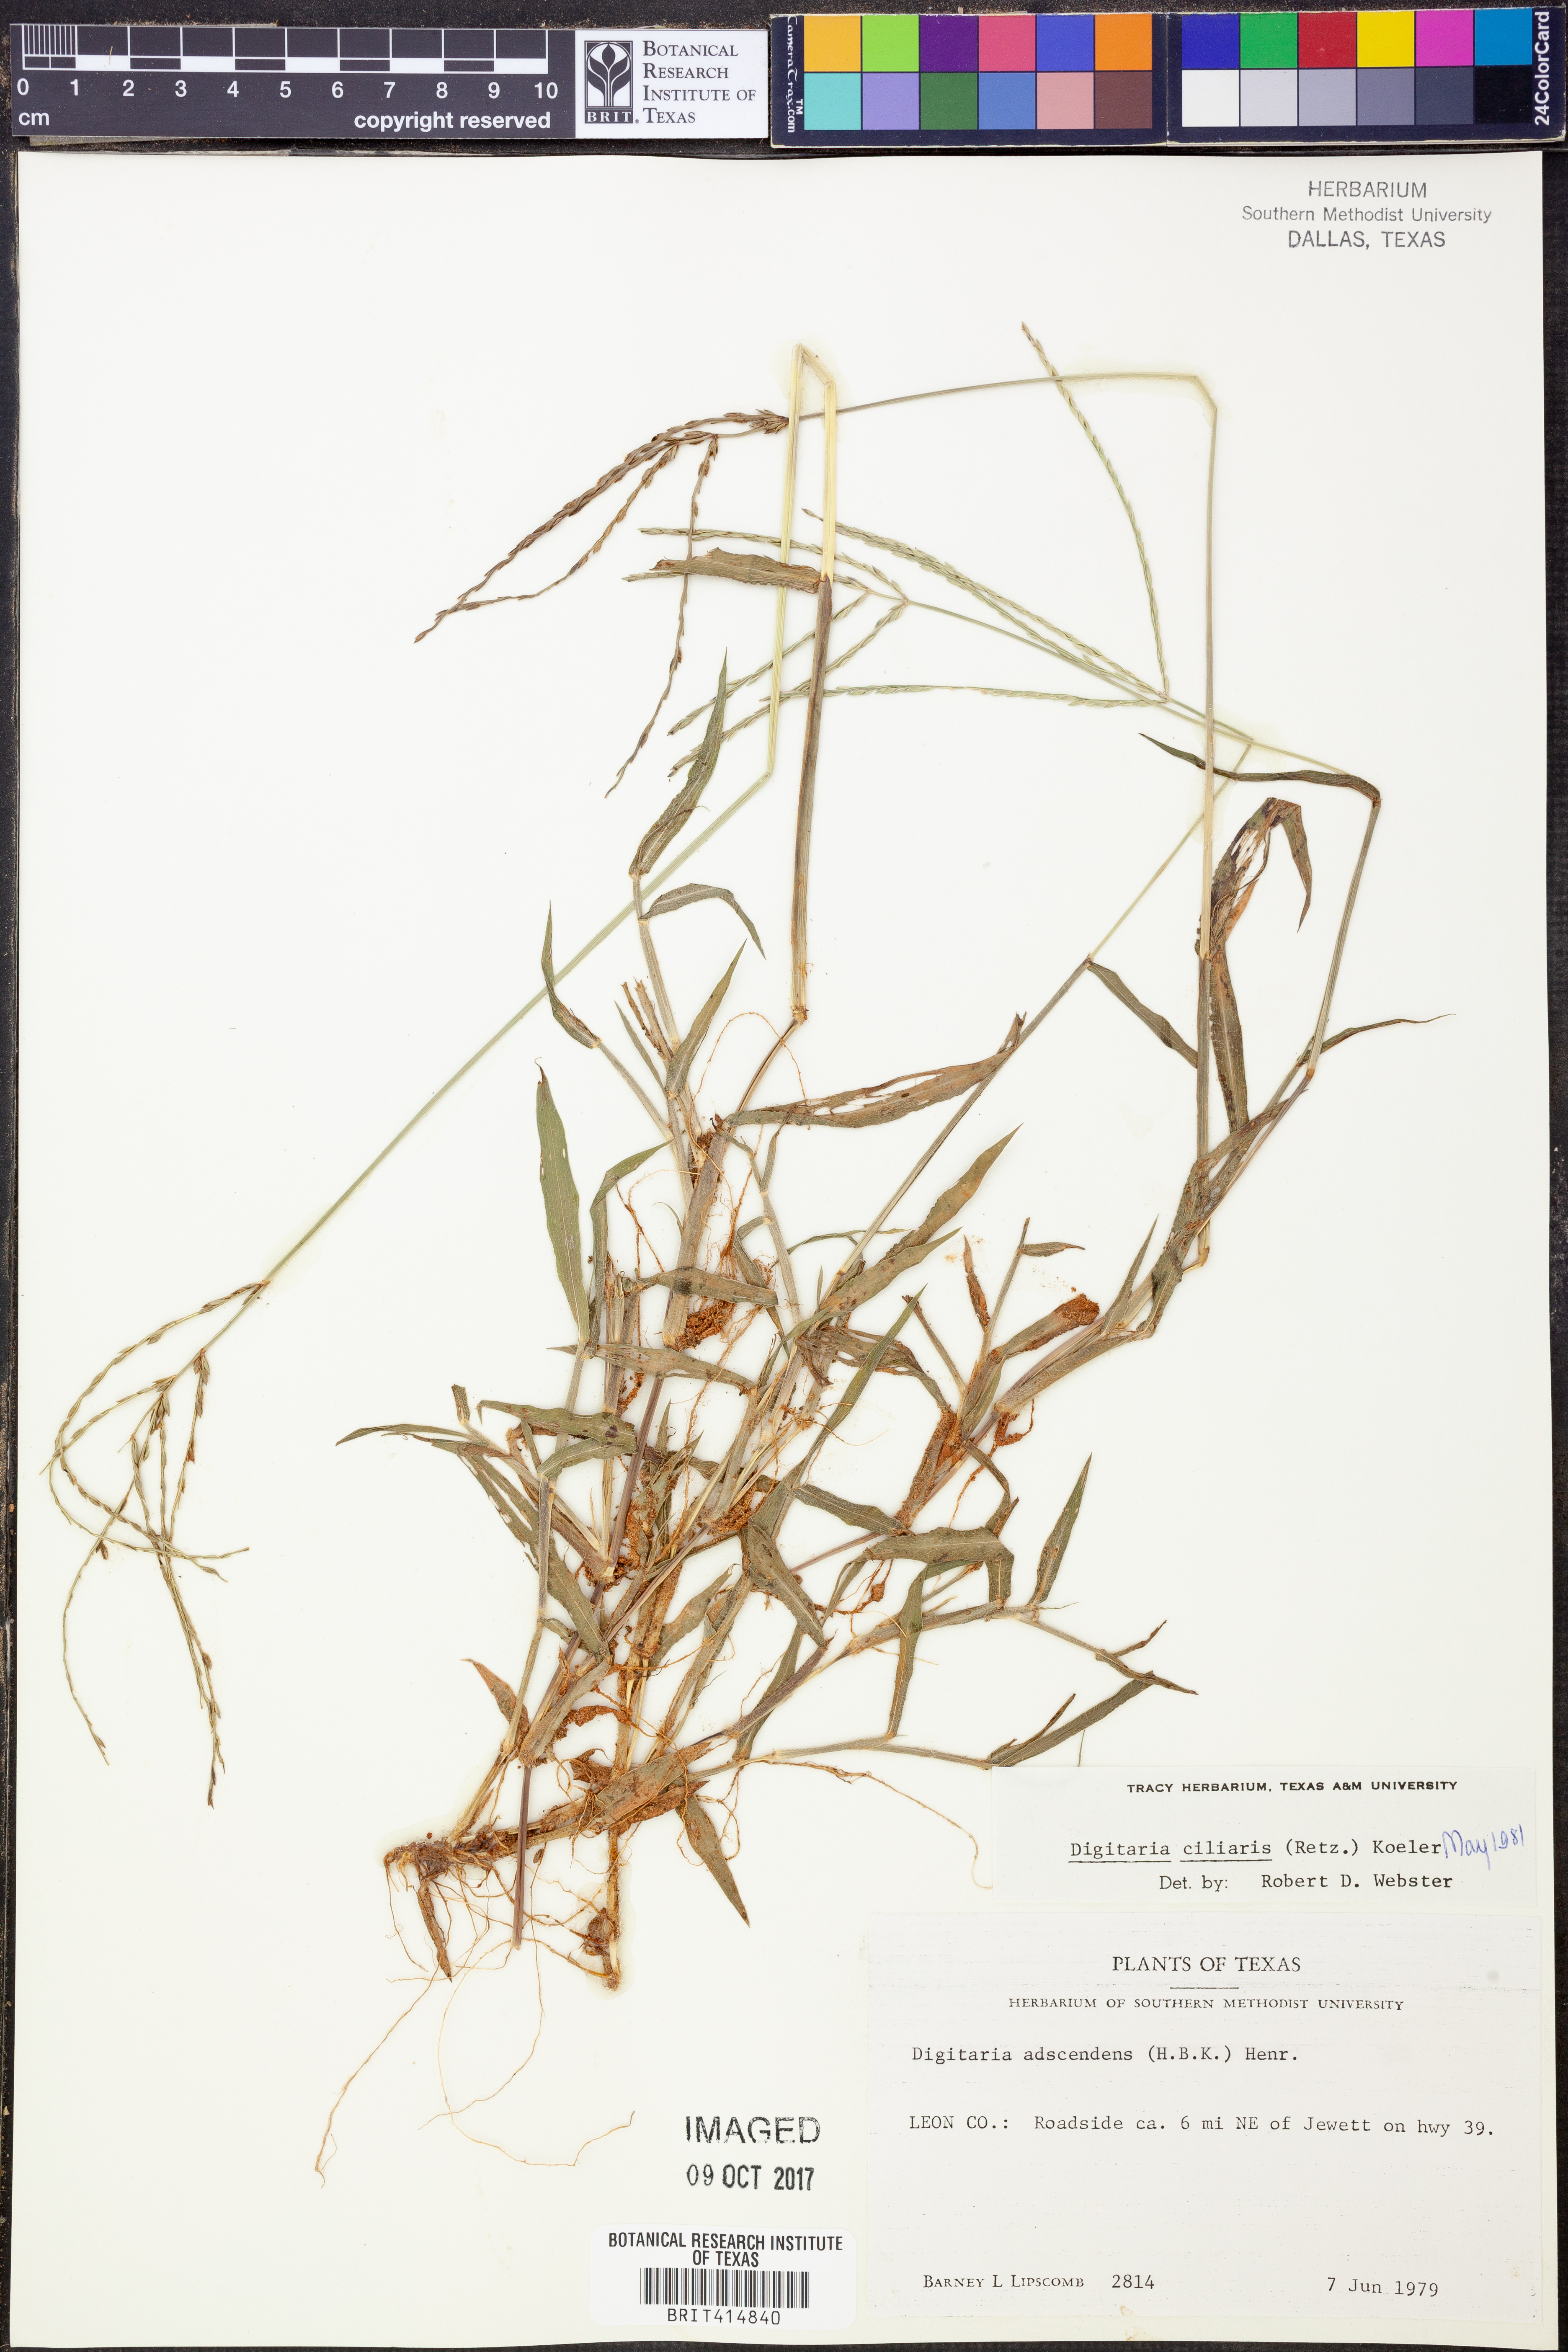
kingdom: Plantae
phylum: Tracheophyta
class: Liliopsida
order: Poales
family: Poaceae
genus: Digitaria
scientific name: Digitaria ciliaris
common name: Tropical finger-grass
